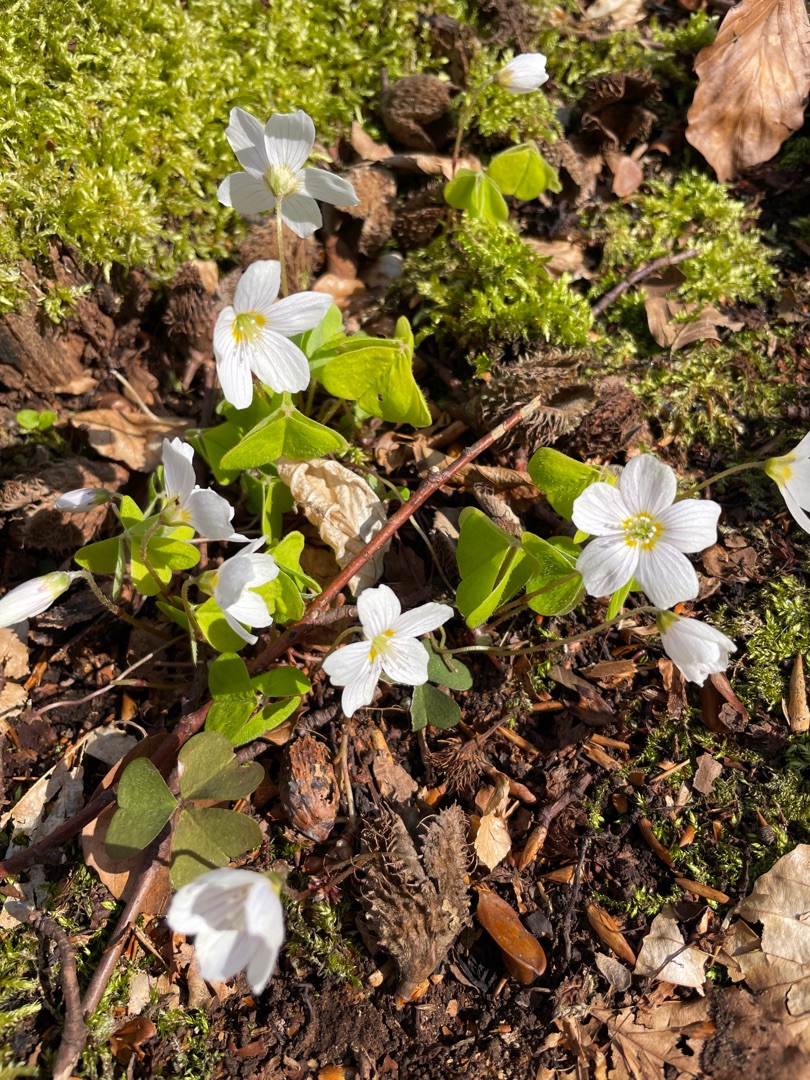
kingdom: Plantae
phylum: Tracheophyta
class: Magnoliopsida
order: Oxalidales
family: Oxalidaceae
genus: Oxalis
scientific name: Oxalis acetosella
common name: Skovsyre
